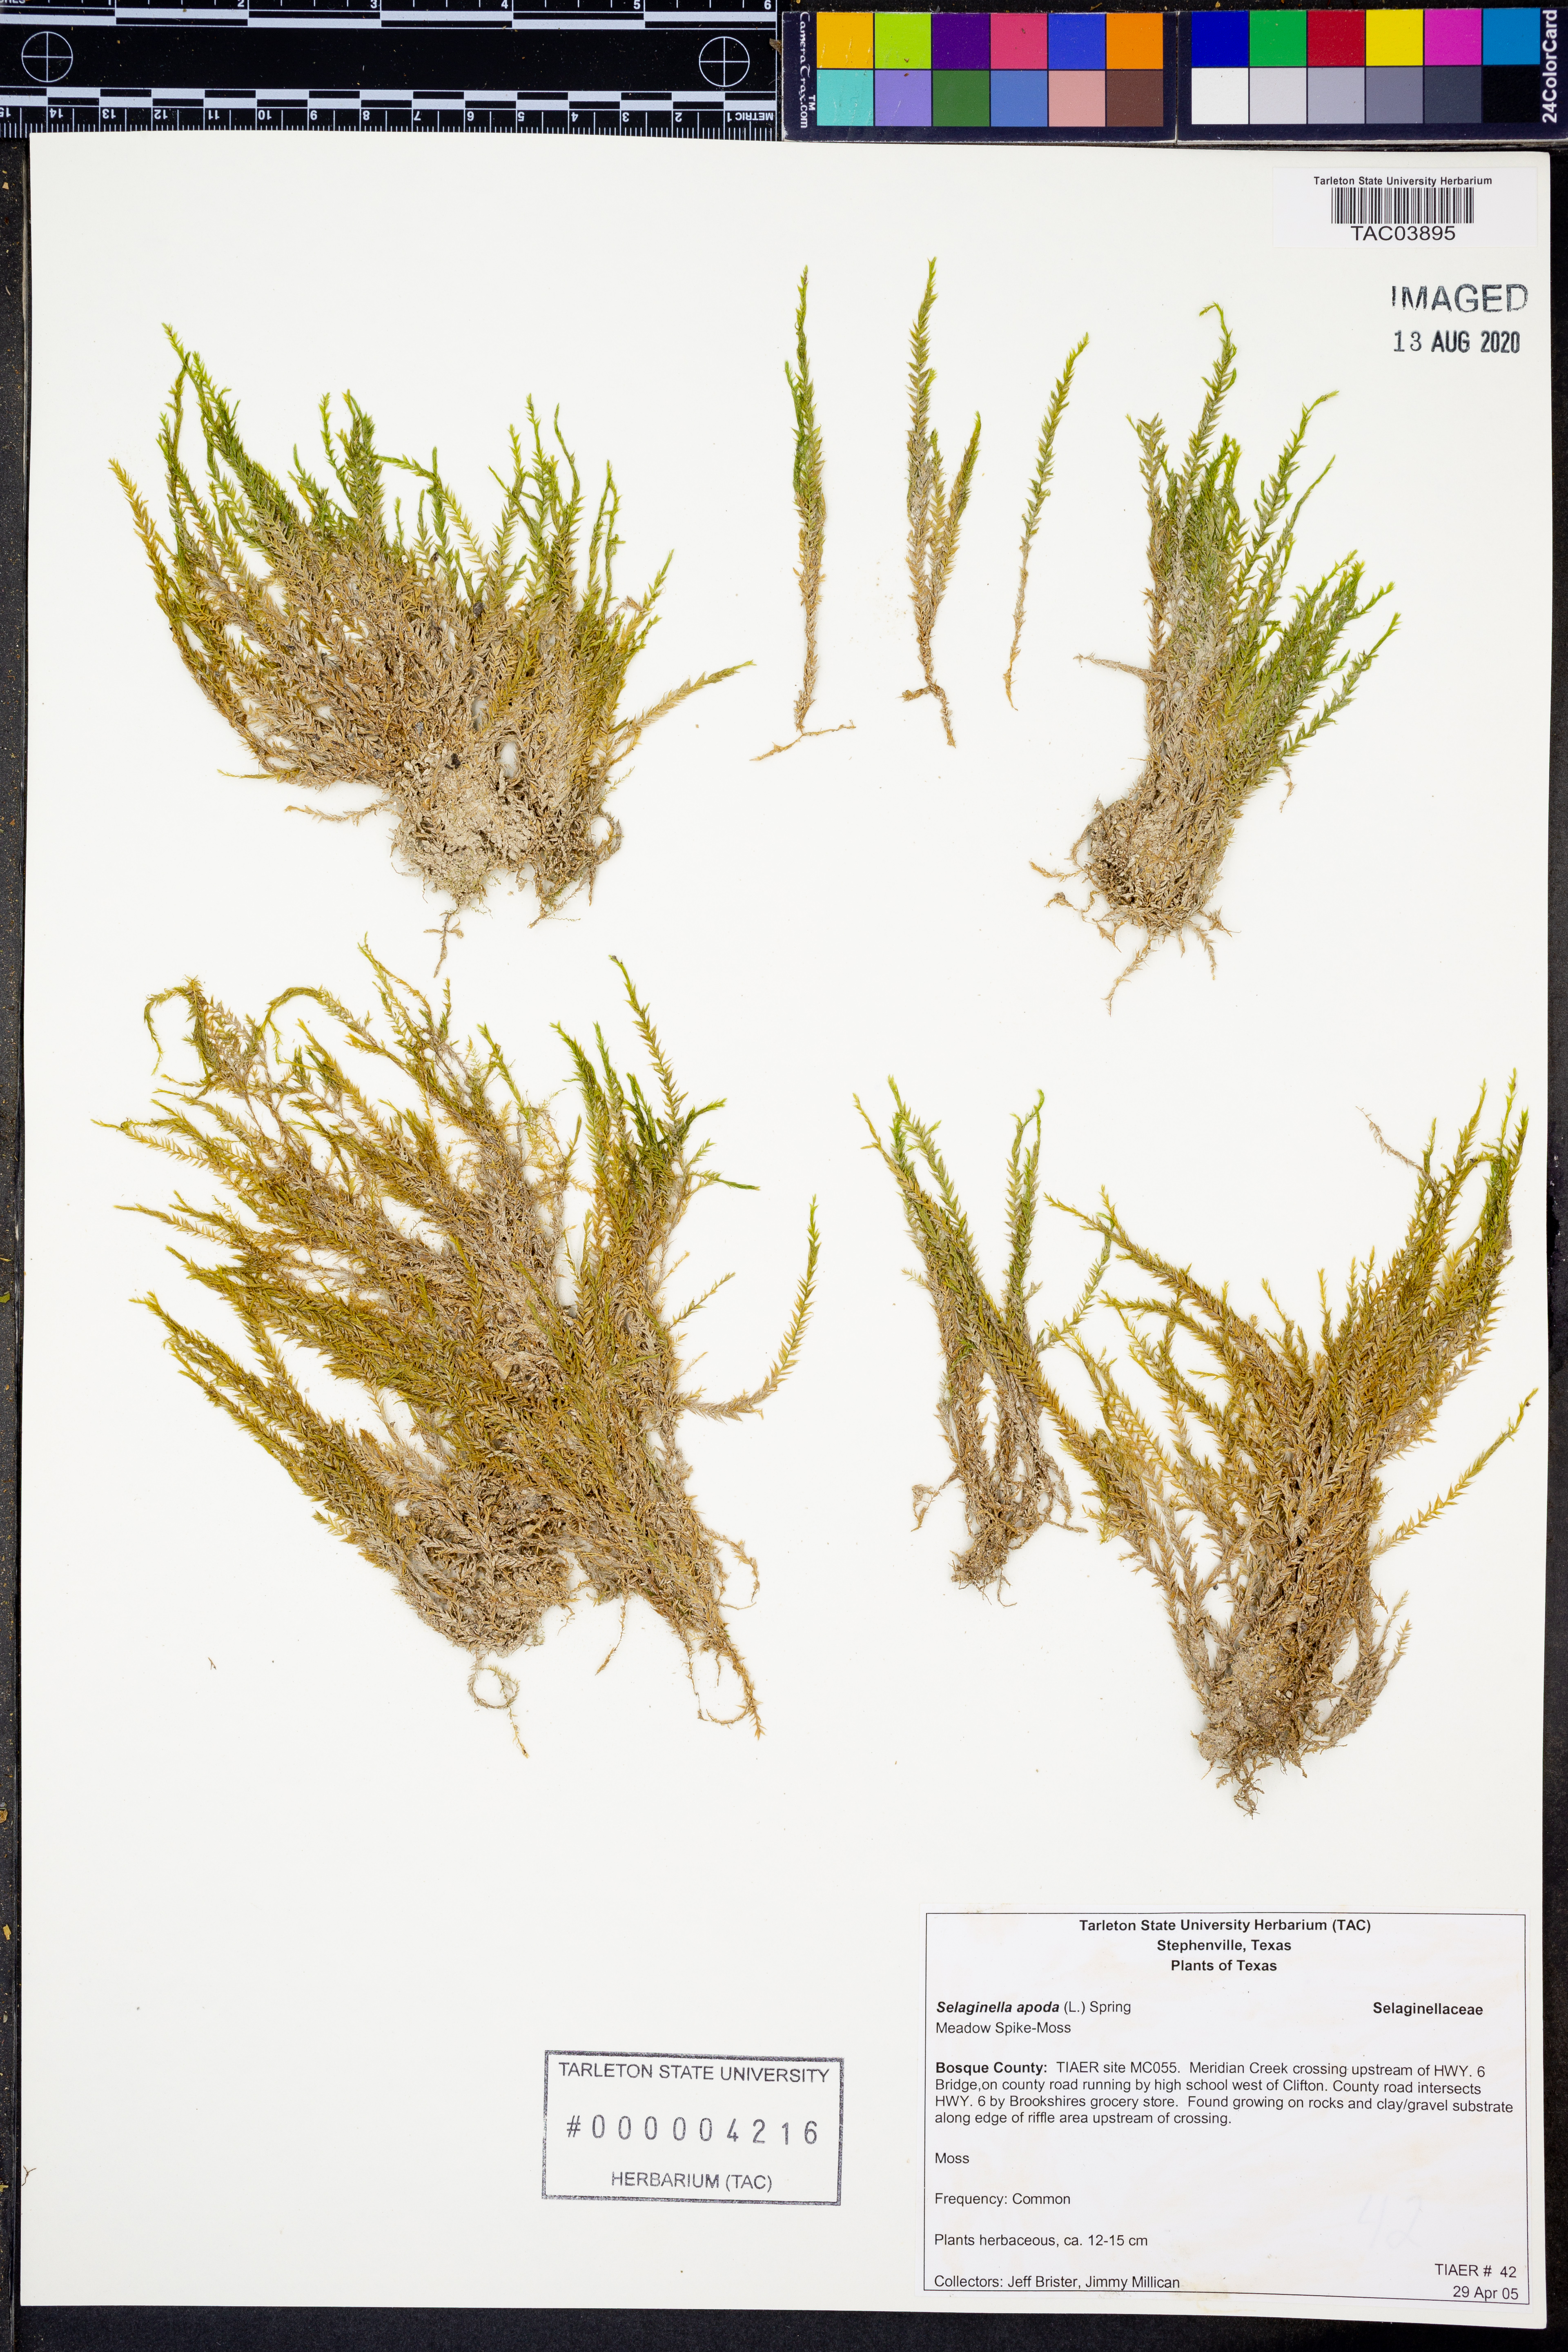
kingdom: Plantae
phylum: Tracheophyta
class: Lycopodiopsida
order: Selaginellales
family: Selaginellaceae
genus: Selaginella
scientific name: Selaginella apoda
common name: Creeping spikemoss
